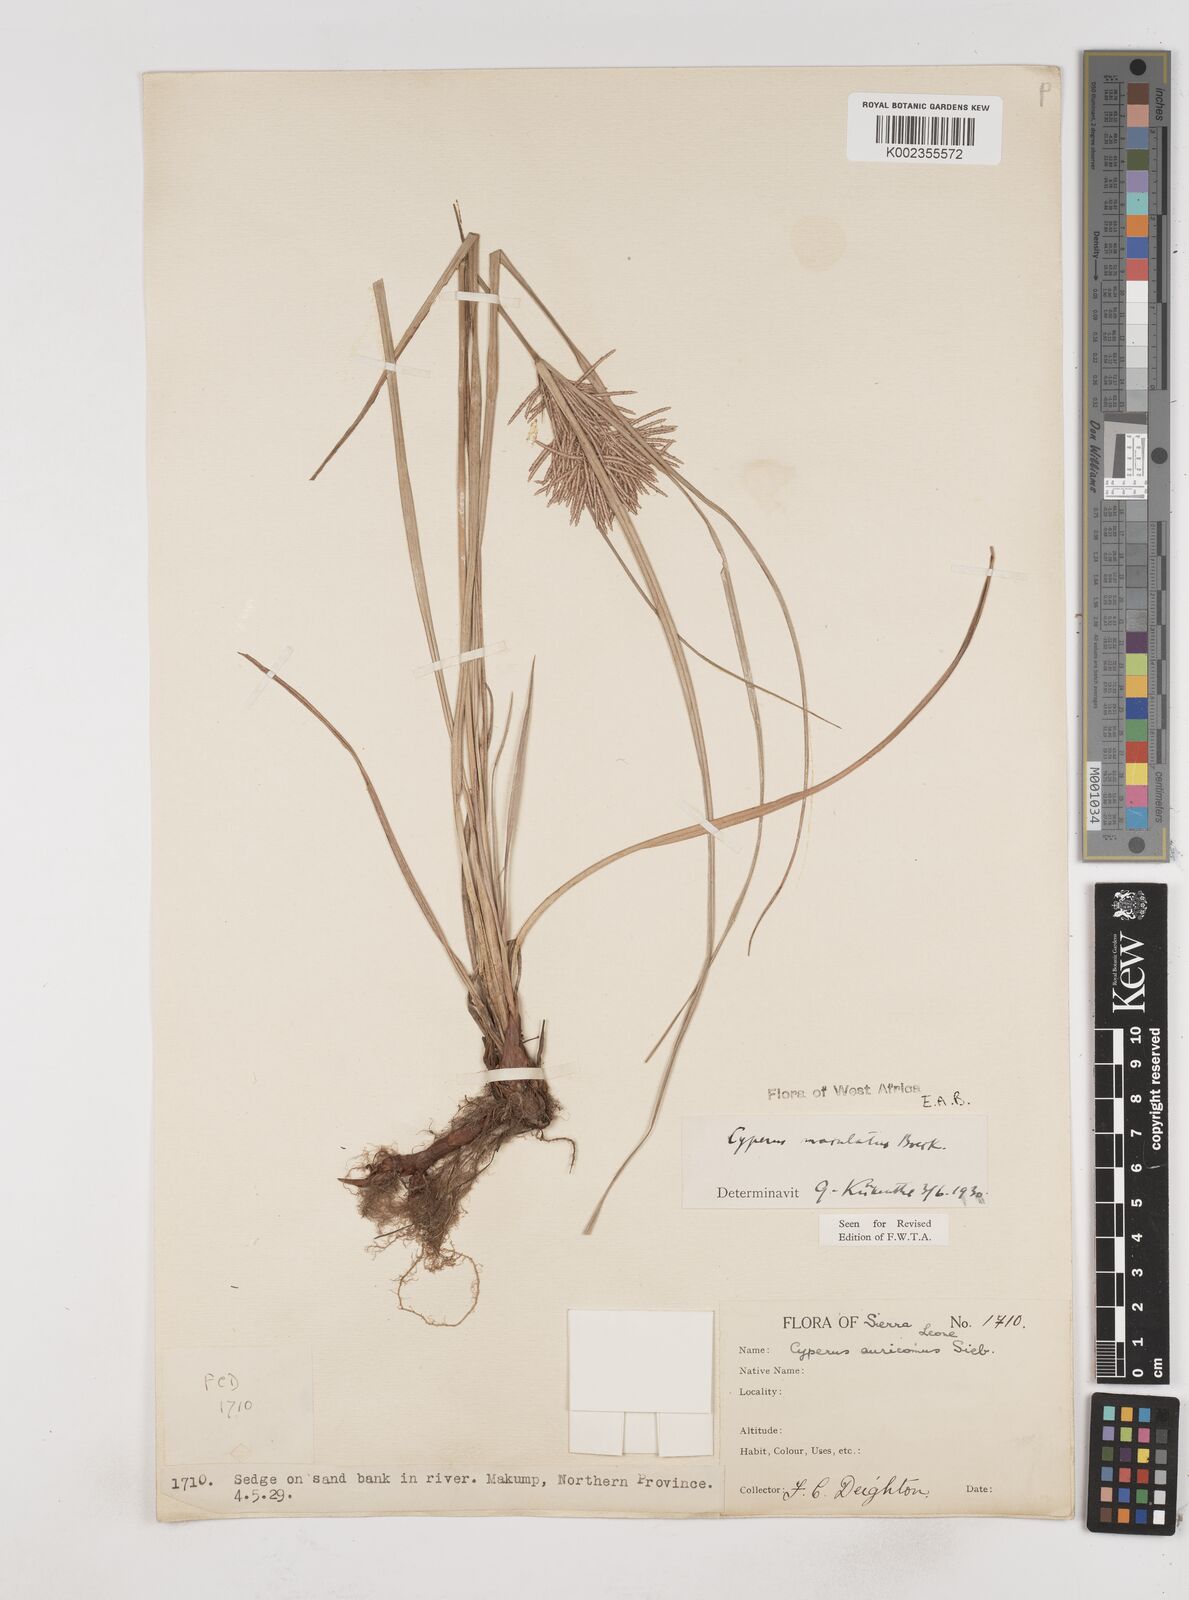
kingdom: Plantae
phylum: Tracheophyta
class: Liliopsida
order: Poales
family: Cyperaceae
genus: Cyperus
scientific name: Cyperus maculatus
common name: Maculated sedge
